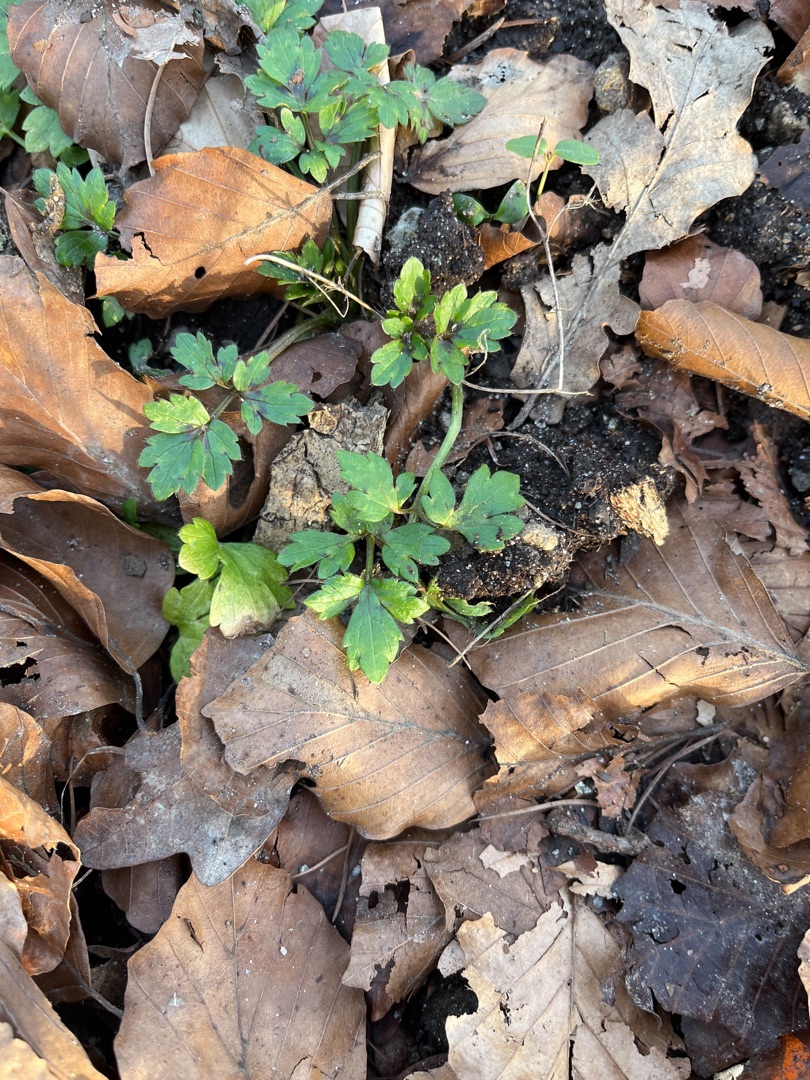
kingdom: Plantae
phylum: Tracheophyta
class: Magnoliopsida
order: Ranunculales
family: Ranunculaceae
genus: Ranunculus
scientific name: Ranunculus repens
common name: Lav ranunkel
